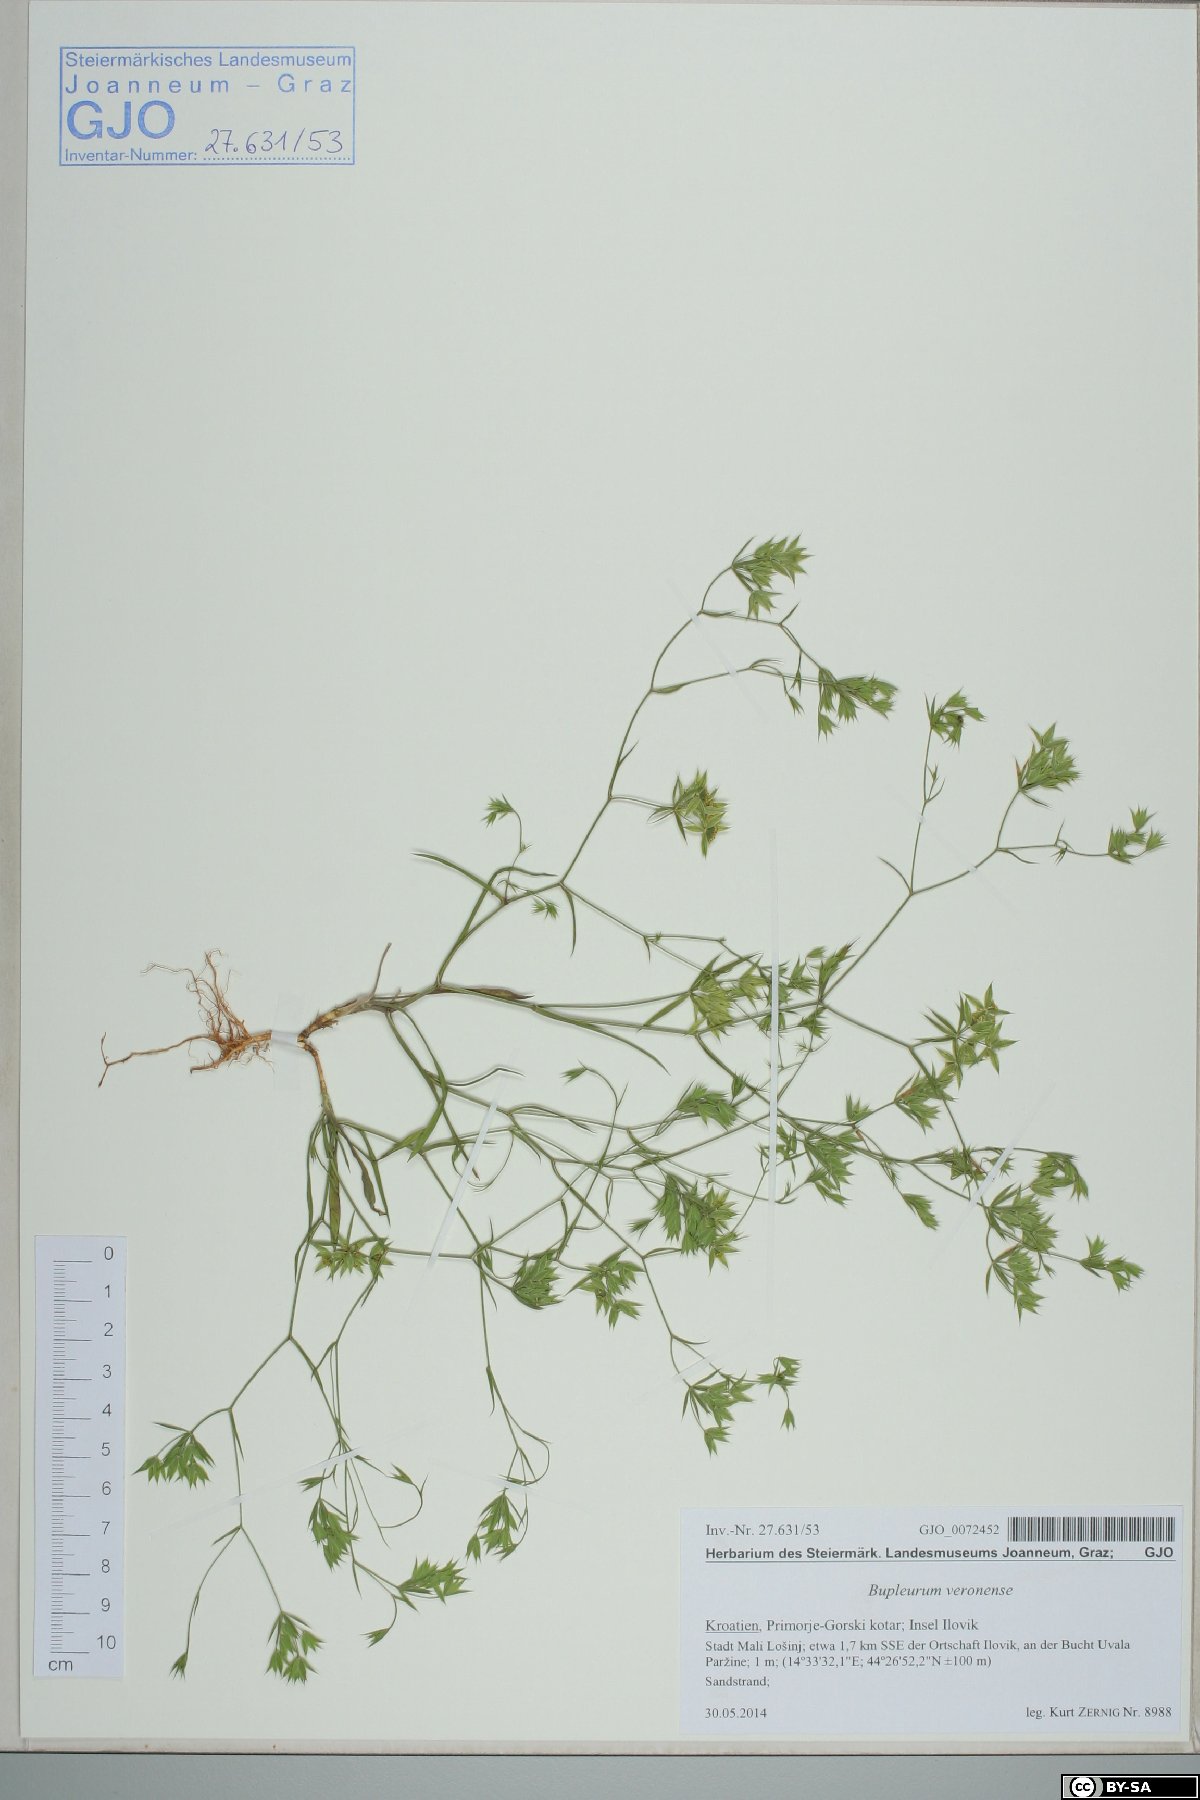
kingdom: Plantae
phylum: Tracheophyta
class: Magnoliopsida
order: Apiales
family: Apiaceae
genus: Bupleurum
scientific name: Bupleurum veronense
